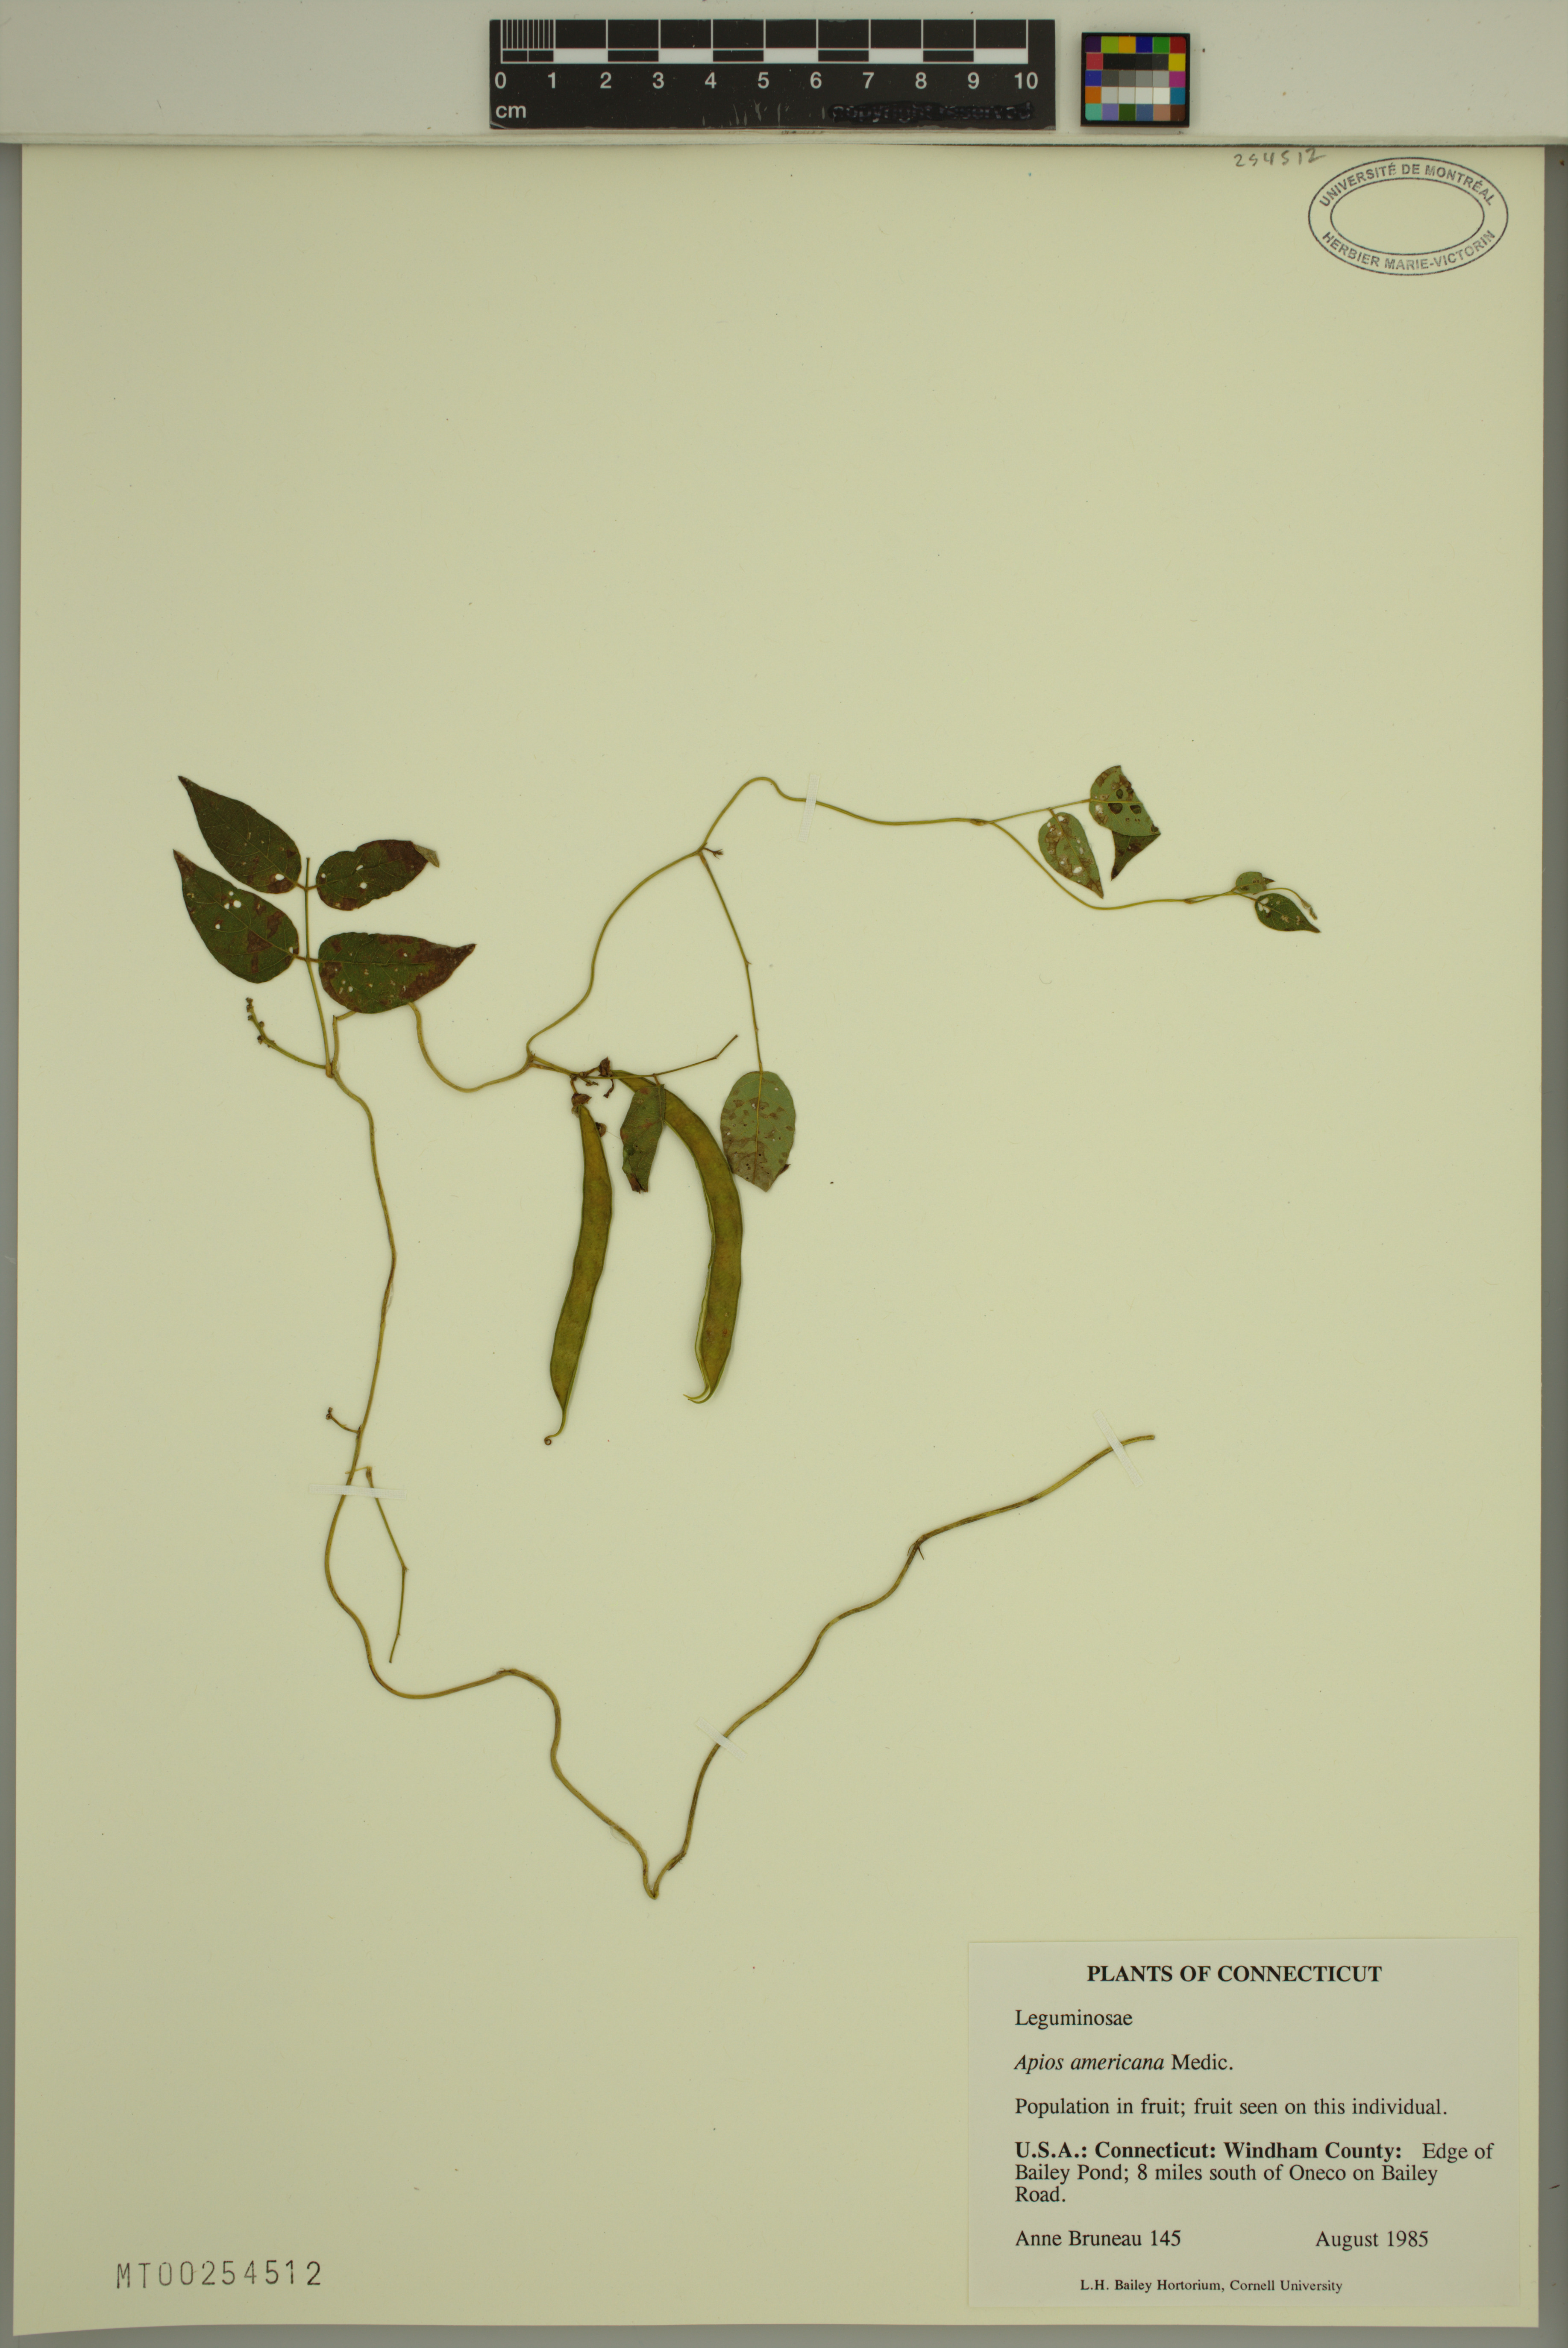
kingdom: Plantae
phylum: Tracheophyta
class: Magnoliopsida
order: Fabales
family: Fabaceae
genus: Apios
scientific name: Apios americana
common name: American potato-bean
